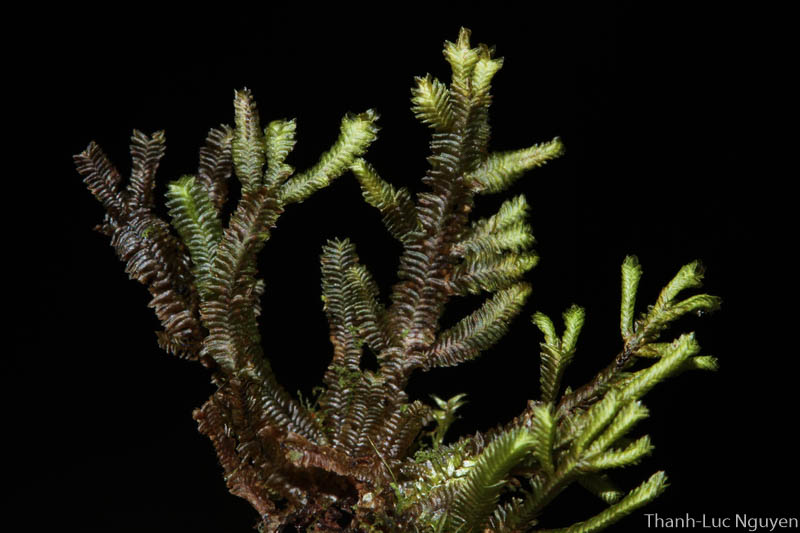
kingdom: Plantae
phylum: Marchantiophyta
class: Jungermanniopsida
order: Porellales
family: Lejeuneaceae
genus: Lejeunea
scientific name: Lejeunea
